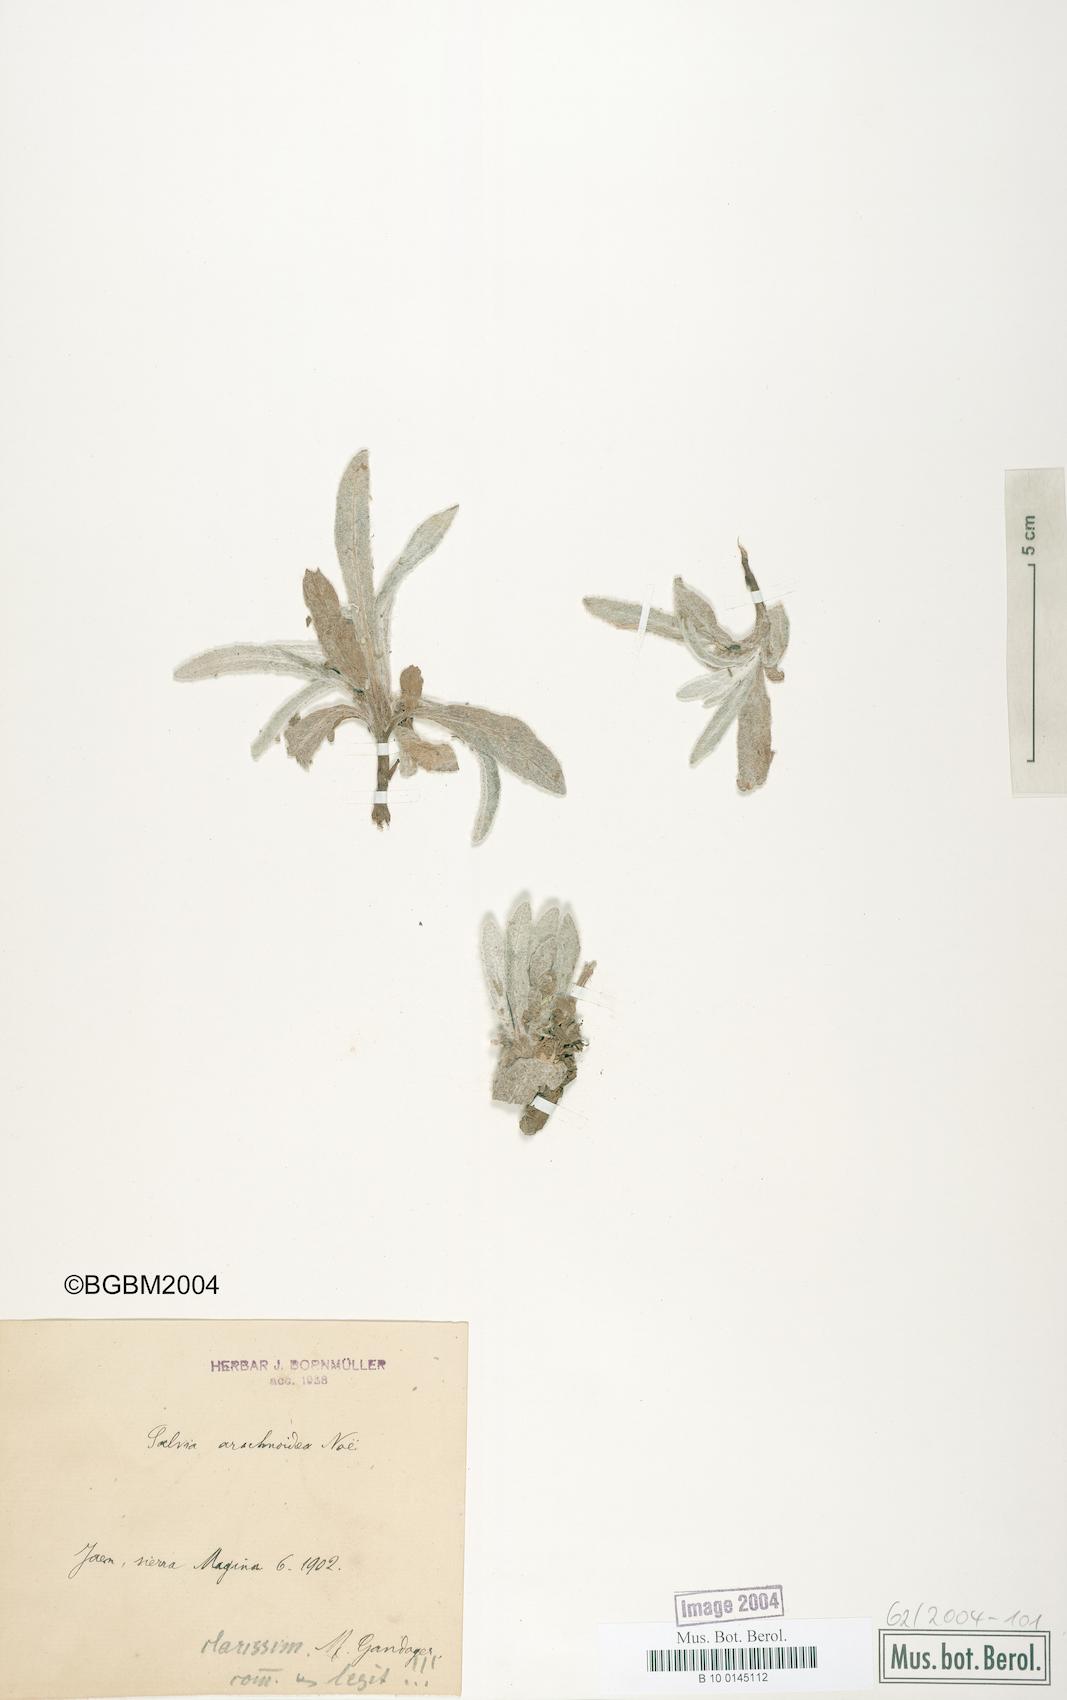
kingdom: Plantae
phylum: Tracheophyta
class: Magnoliopsida
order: Lamiales
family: Lamiaceae
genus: Salvia
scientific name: Salvia phlomoides
